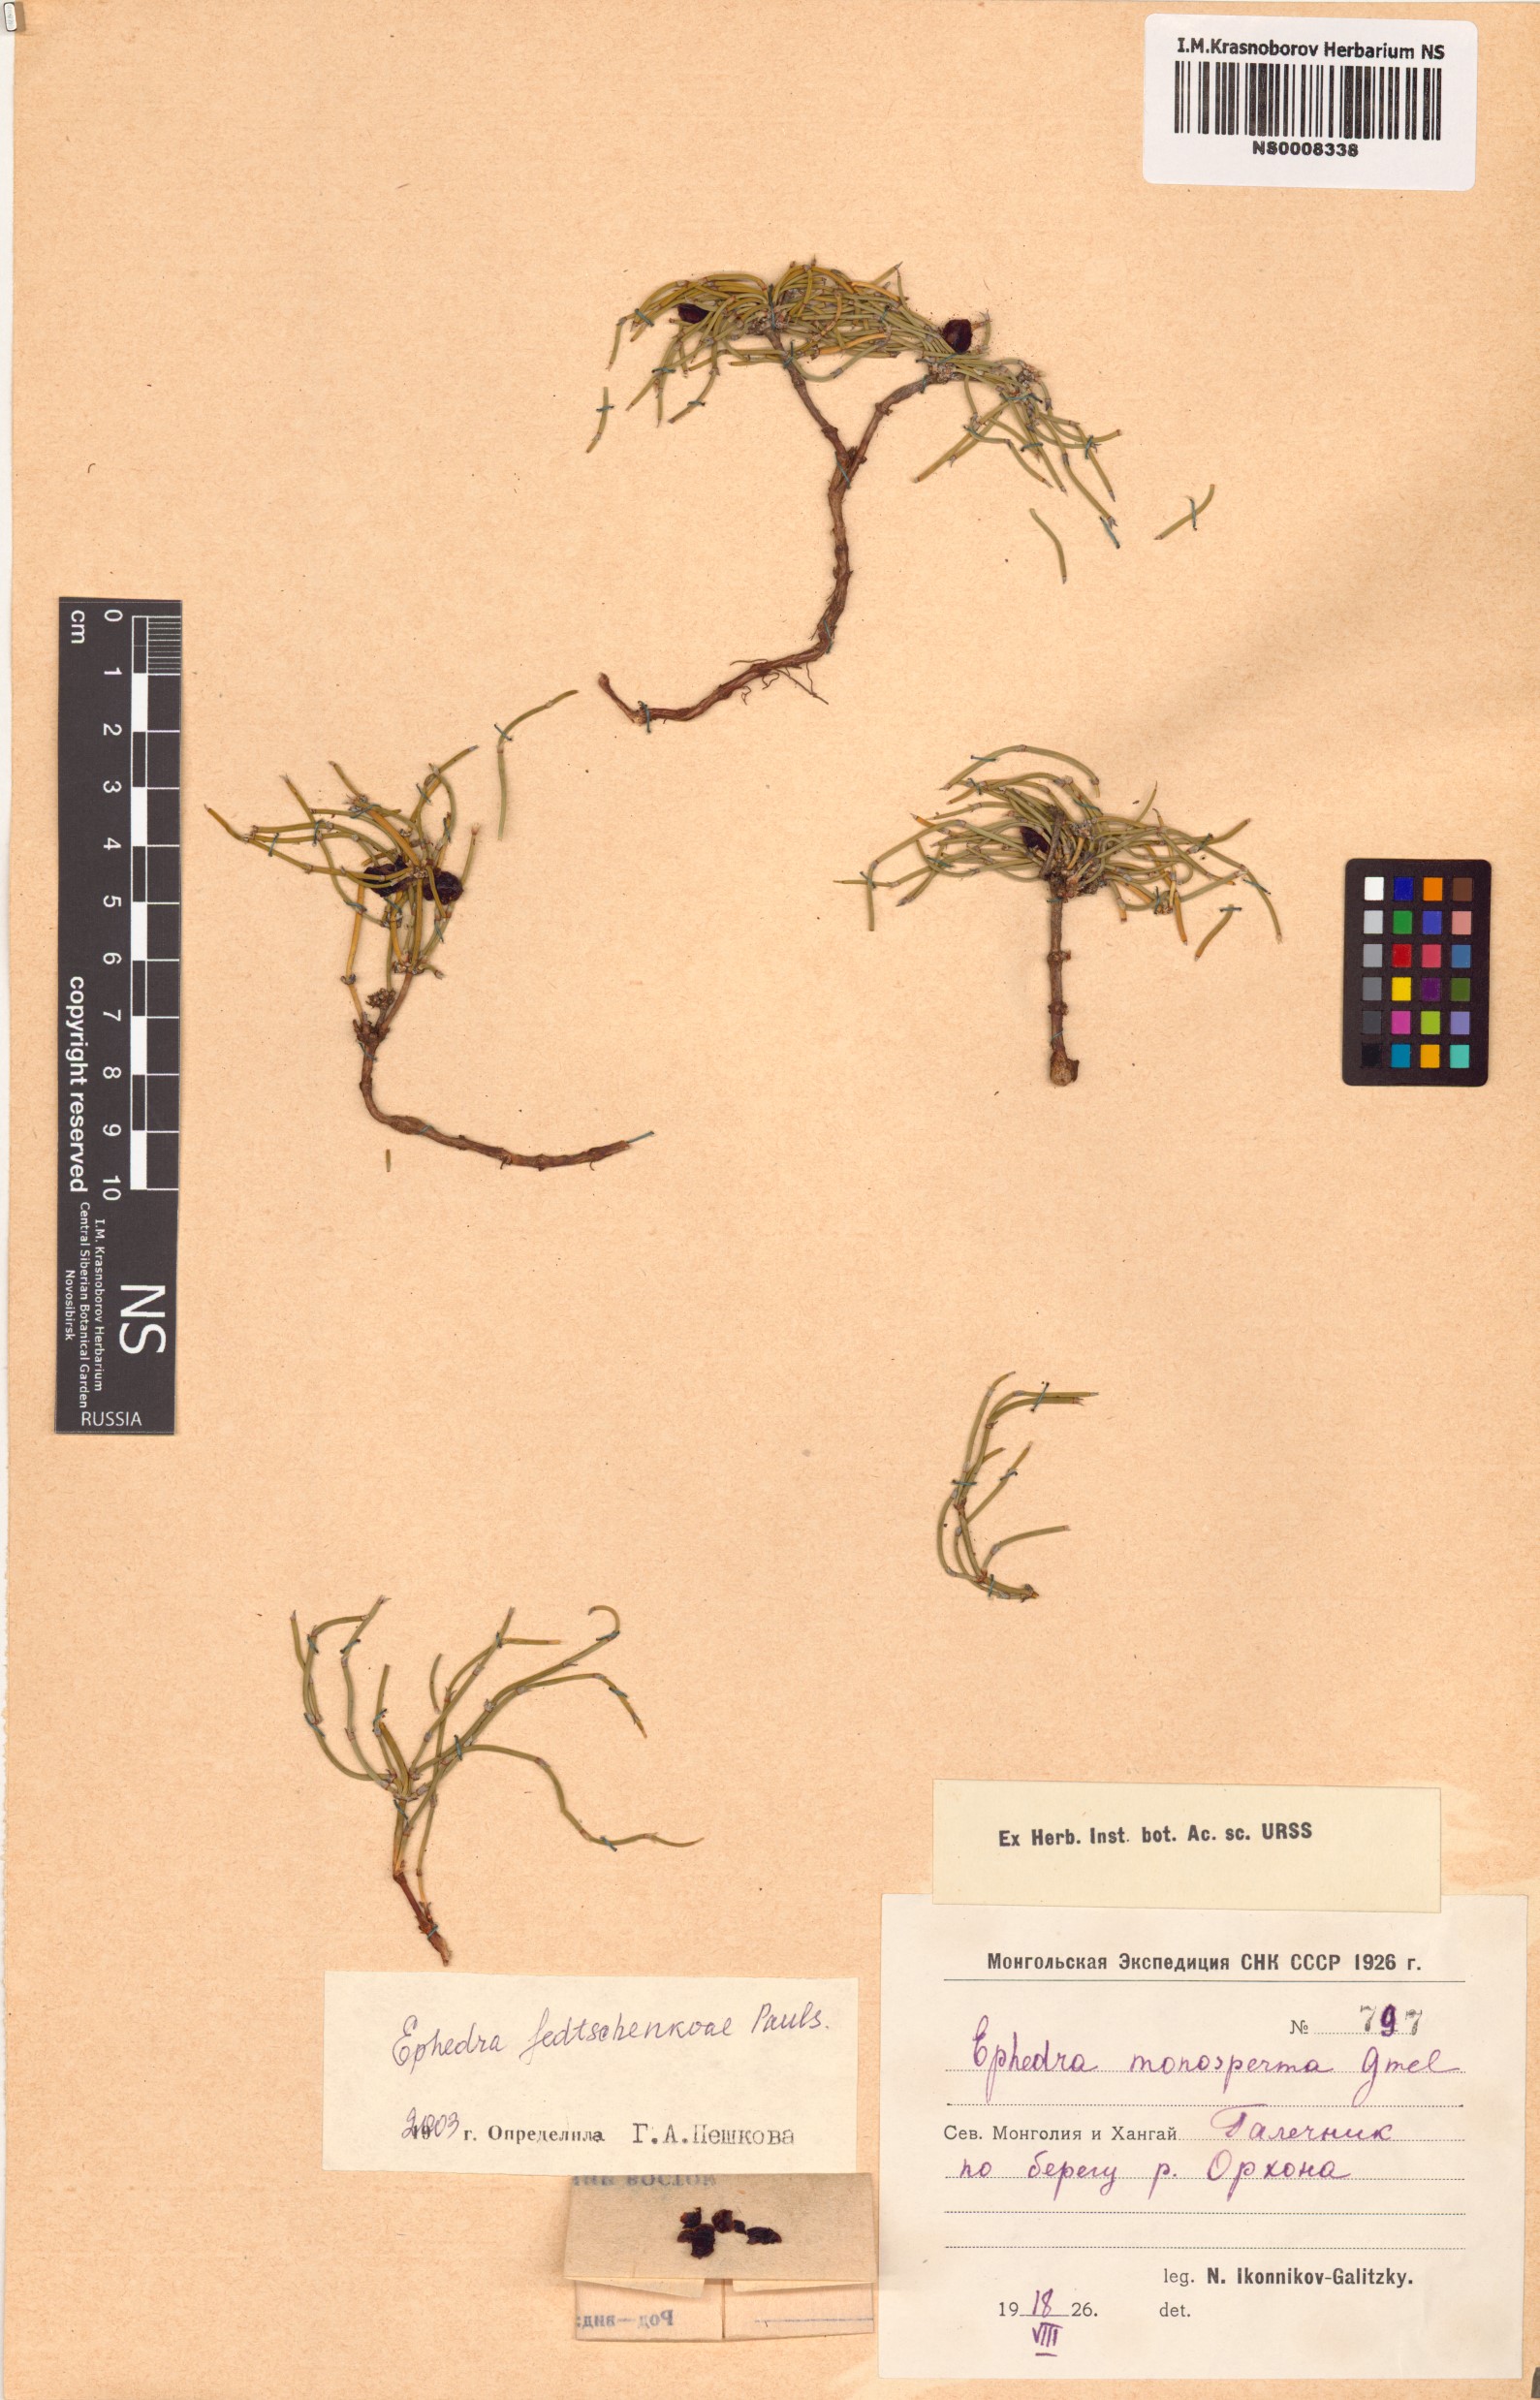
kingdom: Plantae
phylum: Tracheophyta
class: Gnetopsida
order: Ephedrales
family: Ephedraceae
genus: Ephedra
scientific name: Ephedra fedtschenkoae
